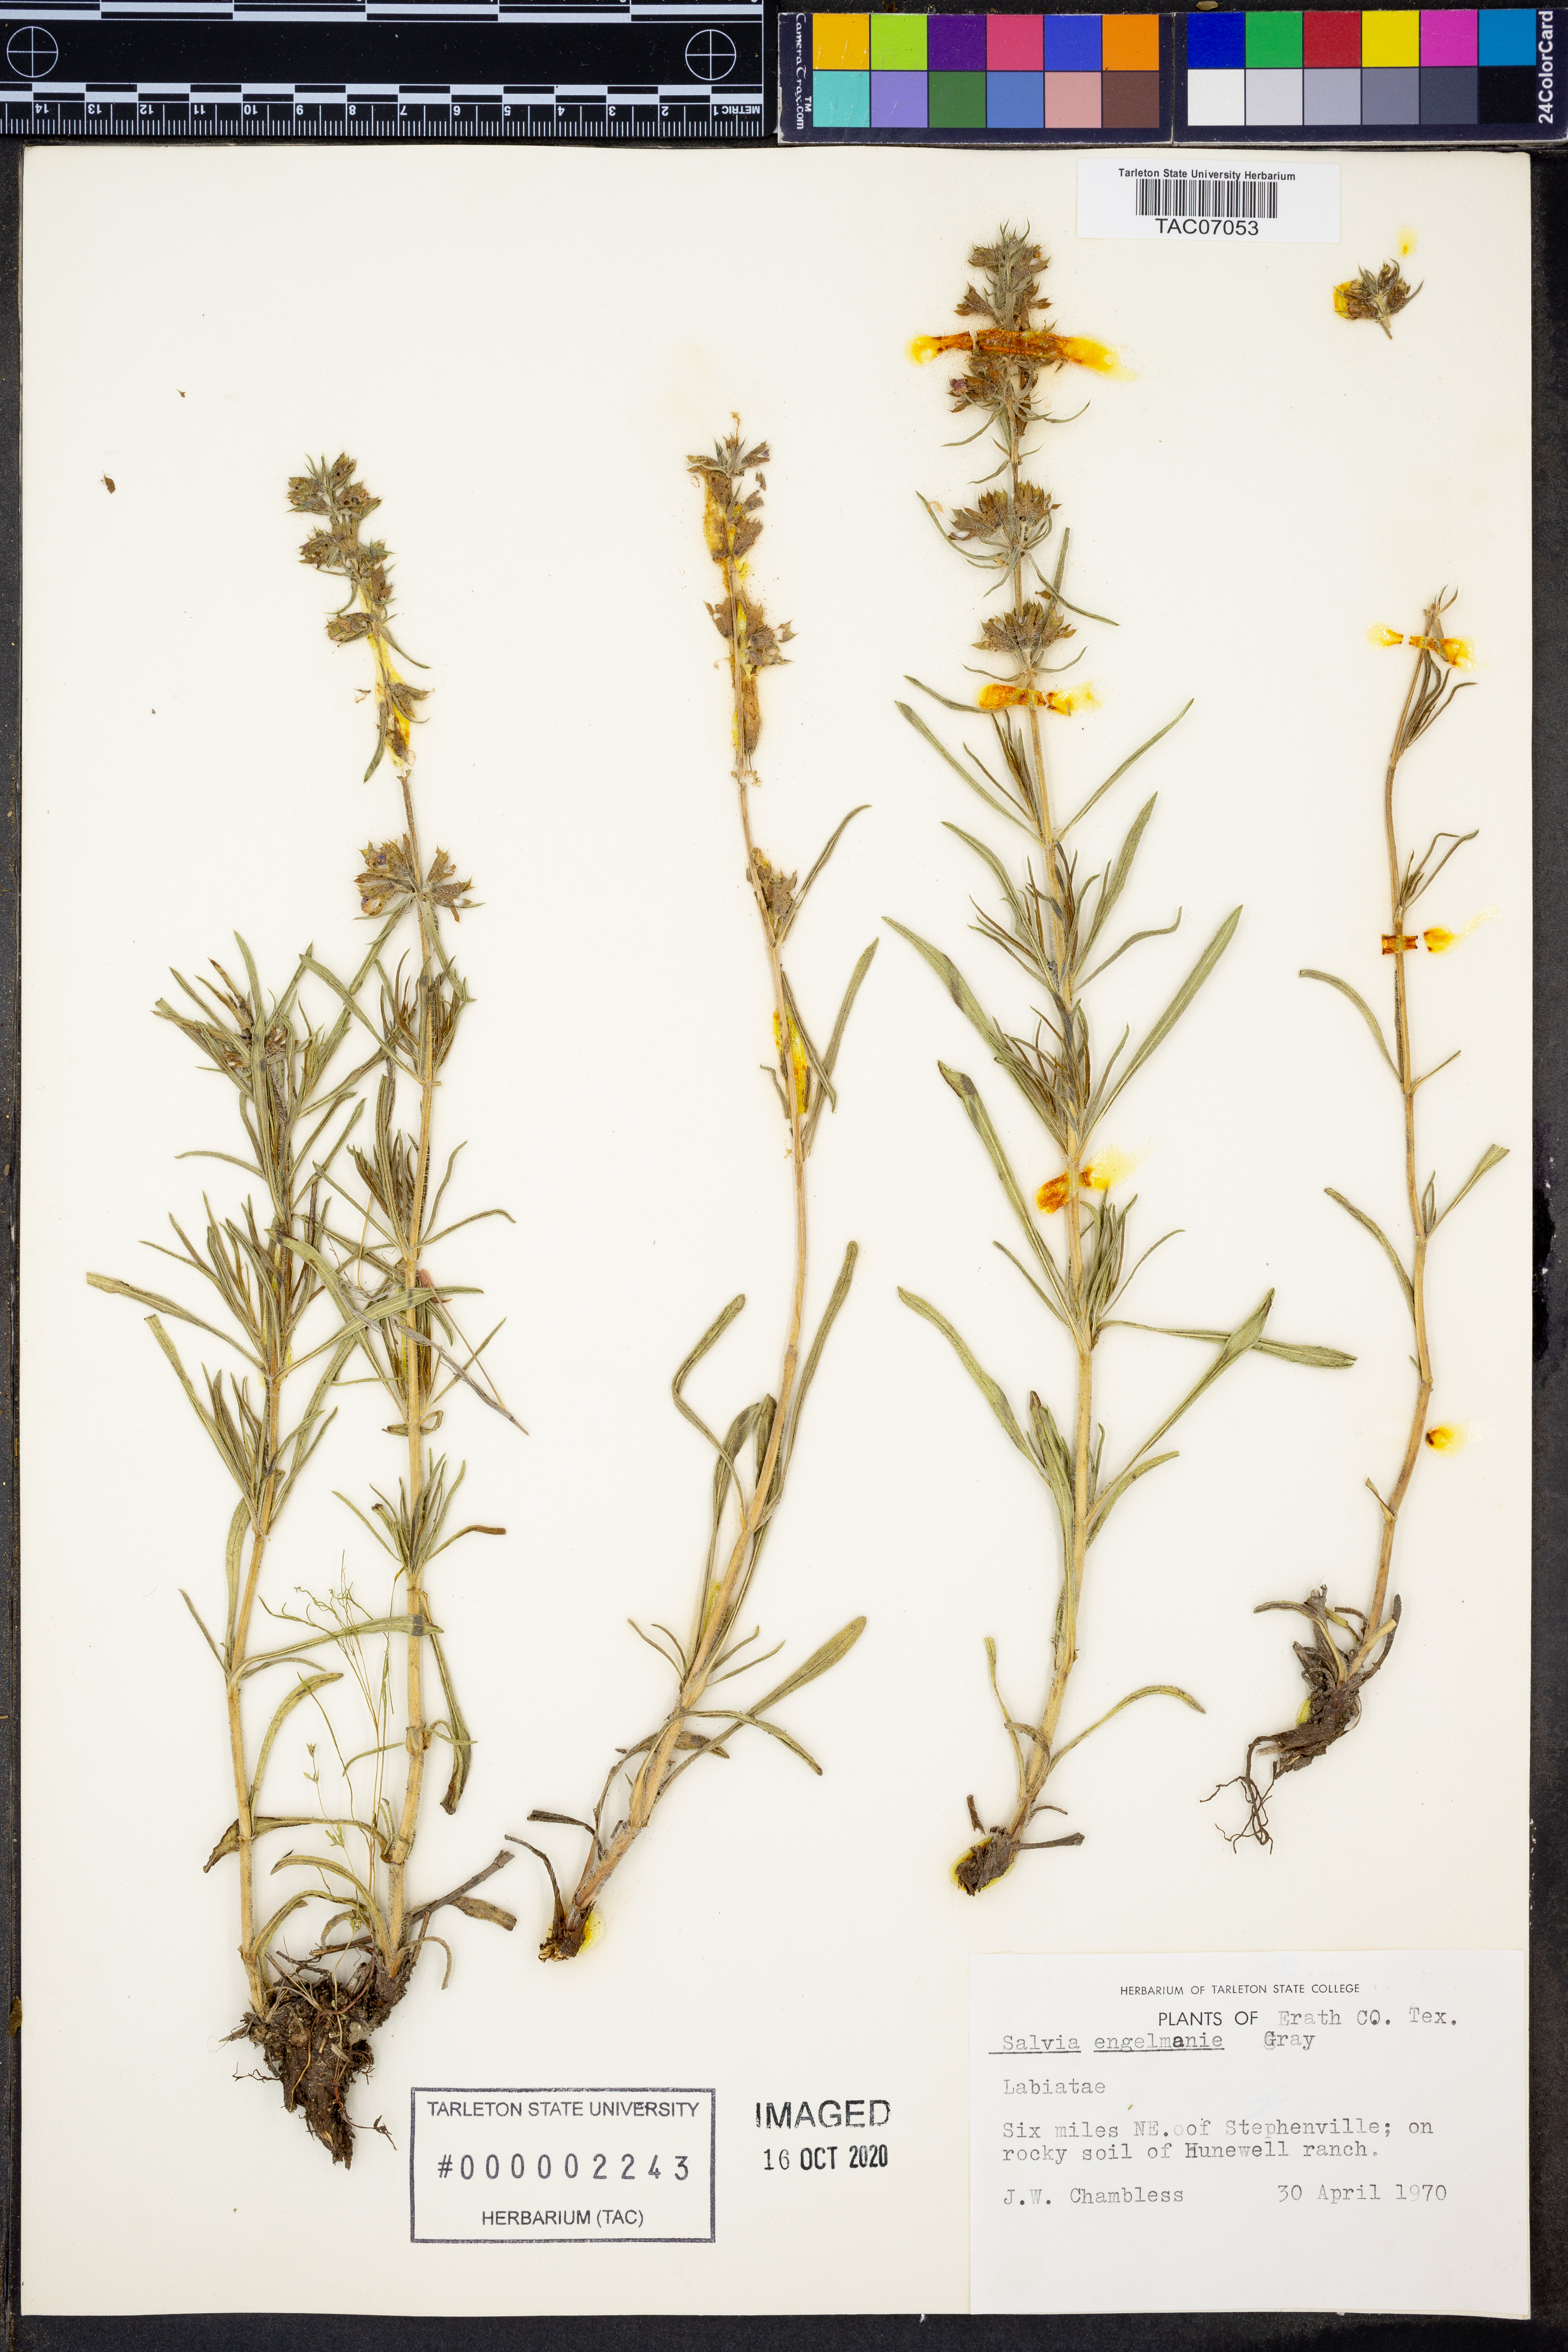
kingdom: Plantae
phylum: Tracheophyta
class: Magnoliopsida
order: Lamiales
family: Lamiaceae
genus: Salvia
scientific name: Salvia engelmannii
